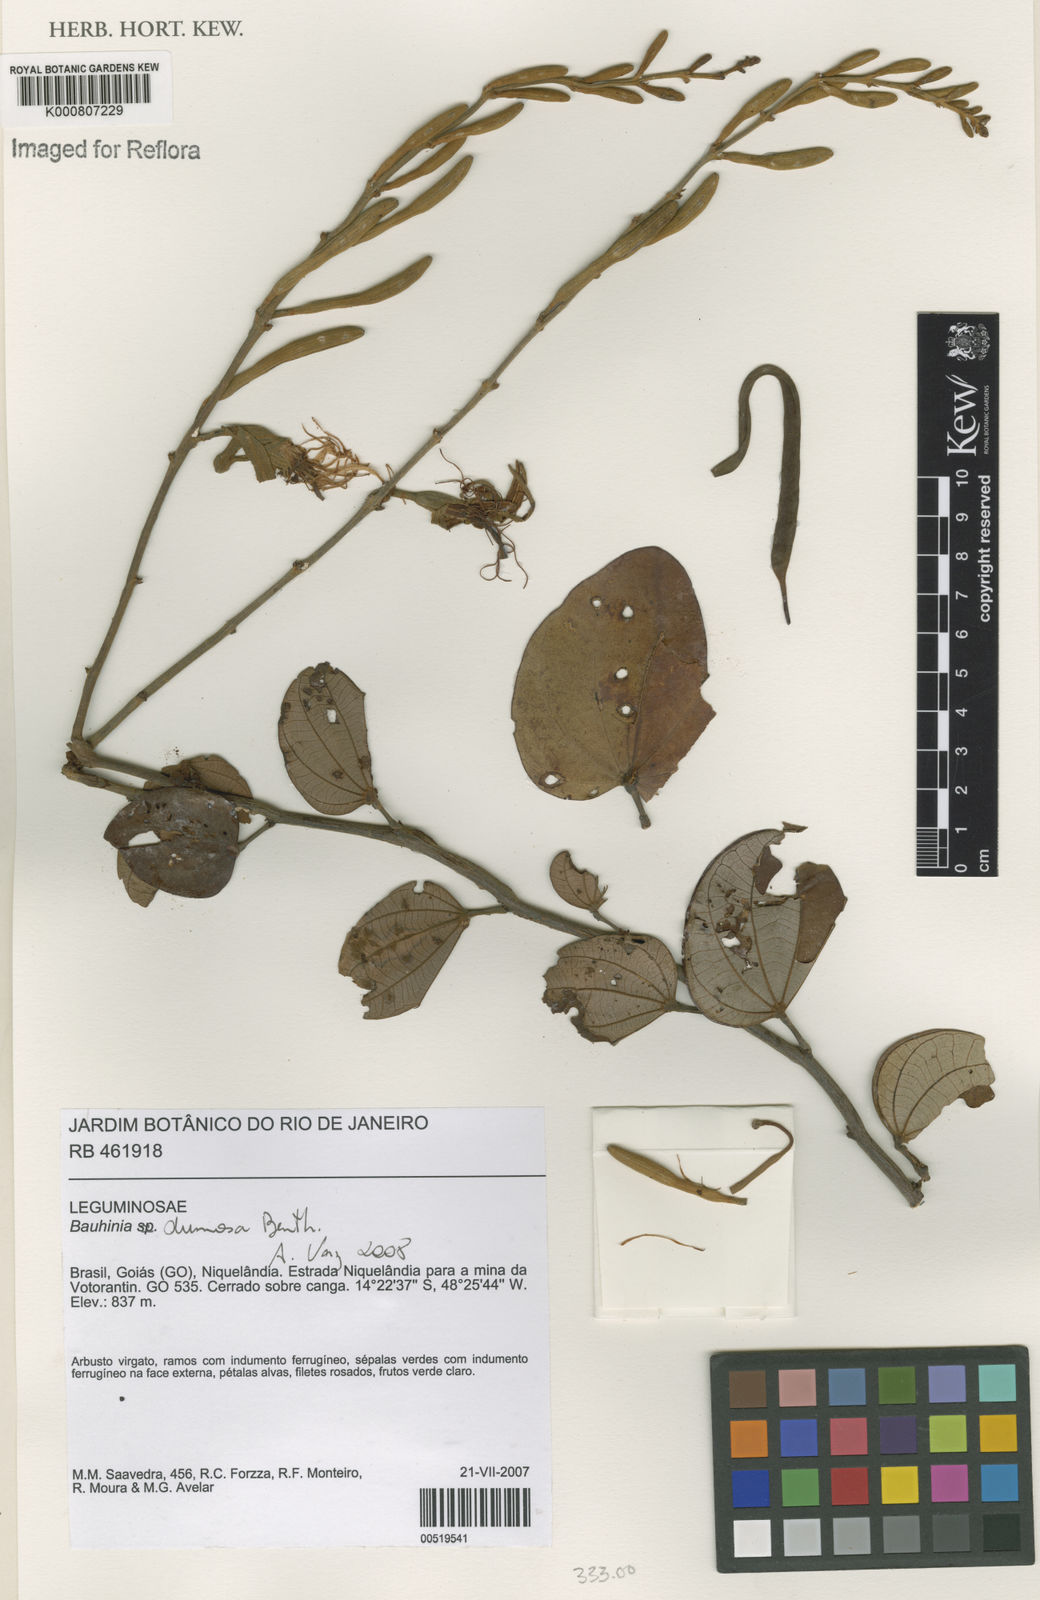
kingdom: Plantae
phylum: Tracheophyta
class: Magnoliopsida
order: Fabales
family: Fabaceae
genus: Bauhinia
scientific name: Bauhinia dumosa
